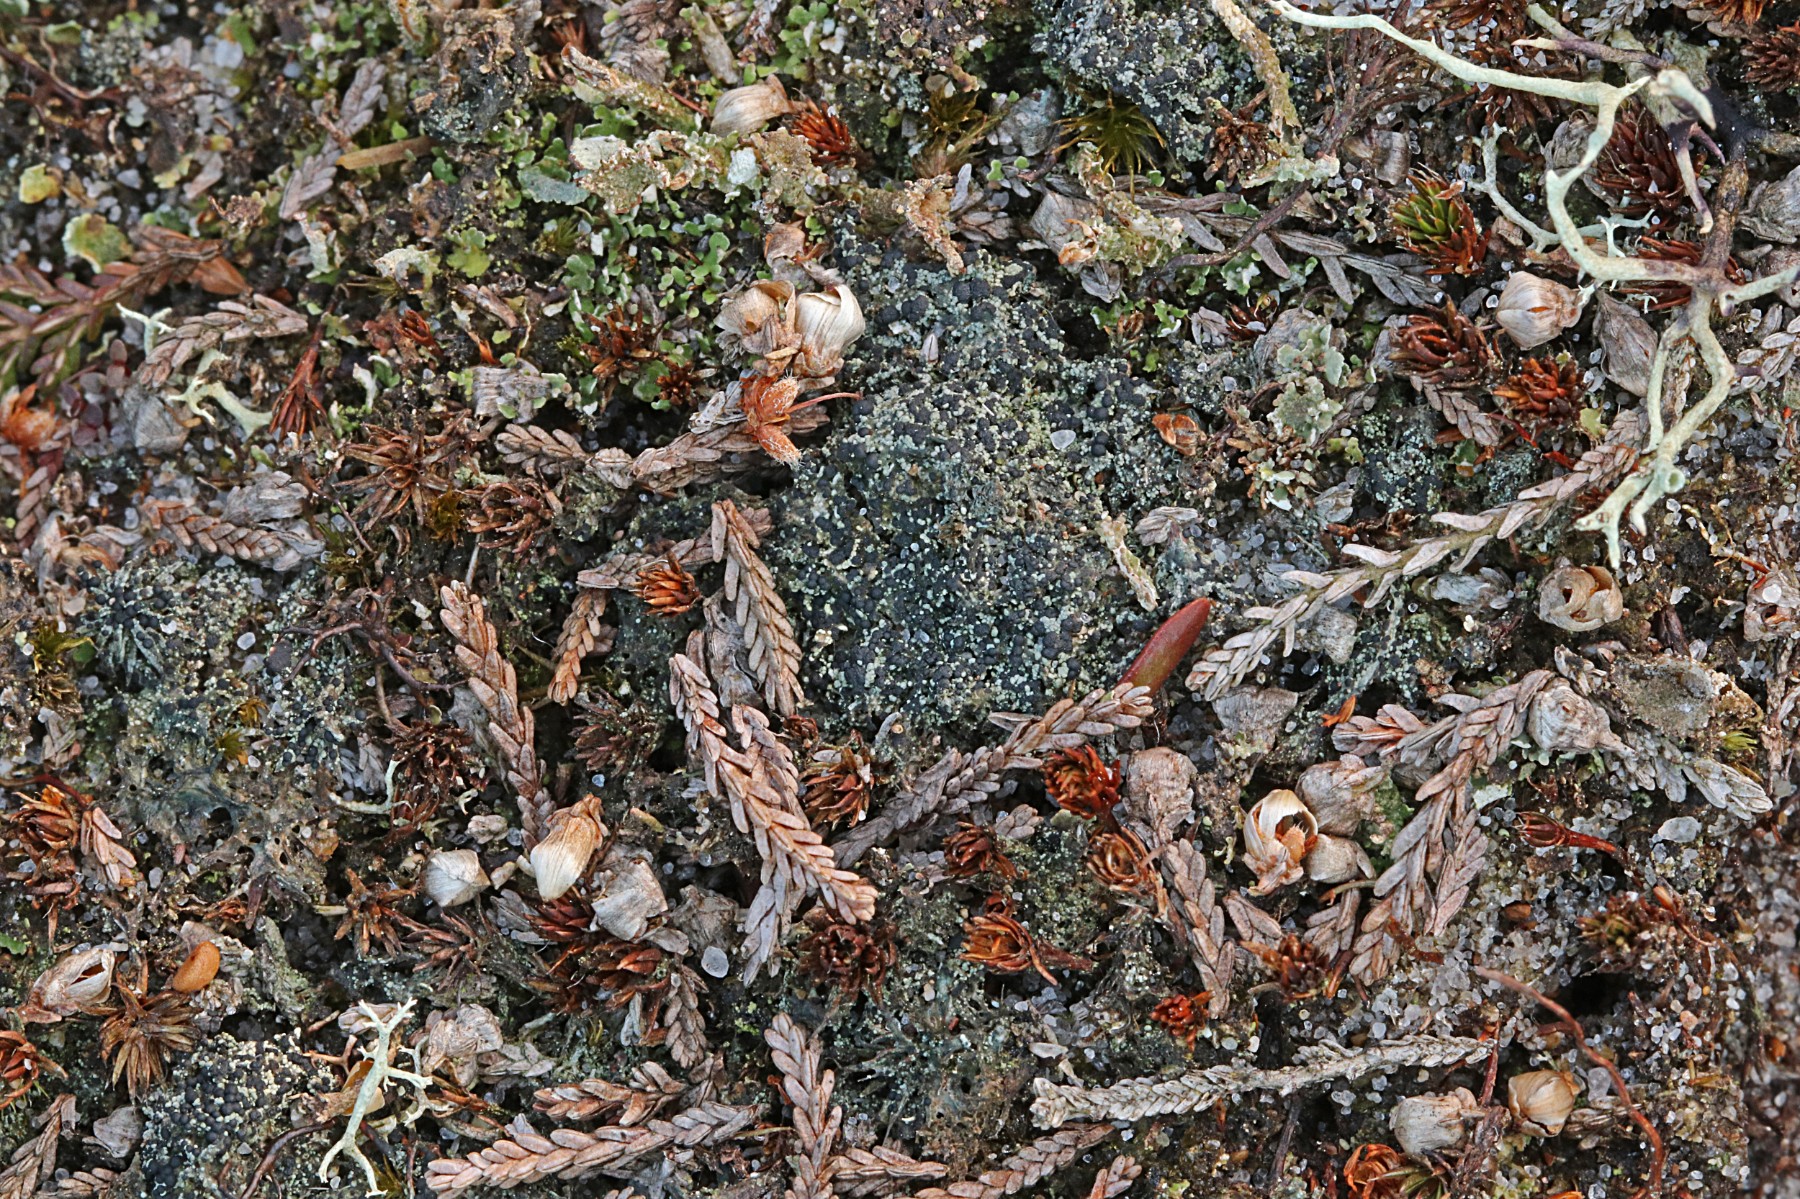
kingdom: Fungi
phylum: Ascomycota
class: Lecanoromycetes
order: Lecanorales
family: Byssolomataceae
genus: Micarea
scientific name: Micarea lignaria
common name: tørve-knaplav
